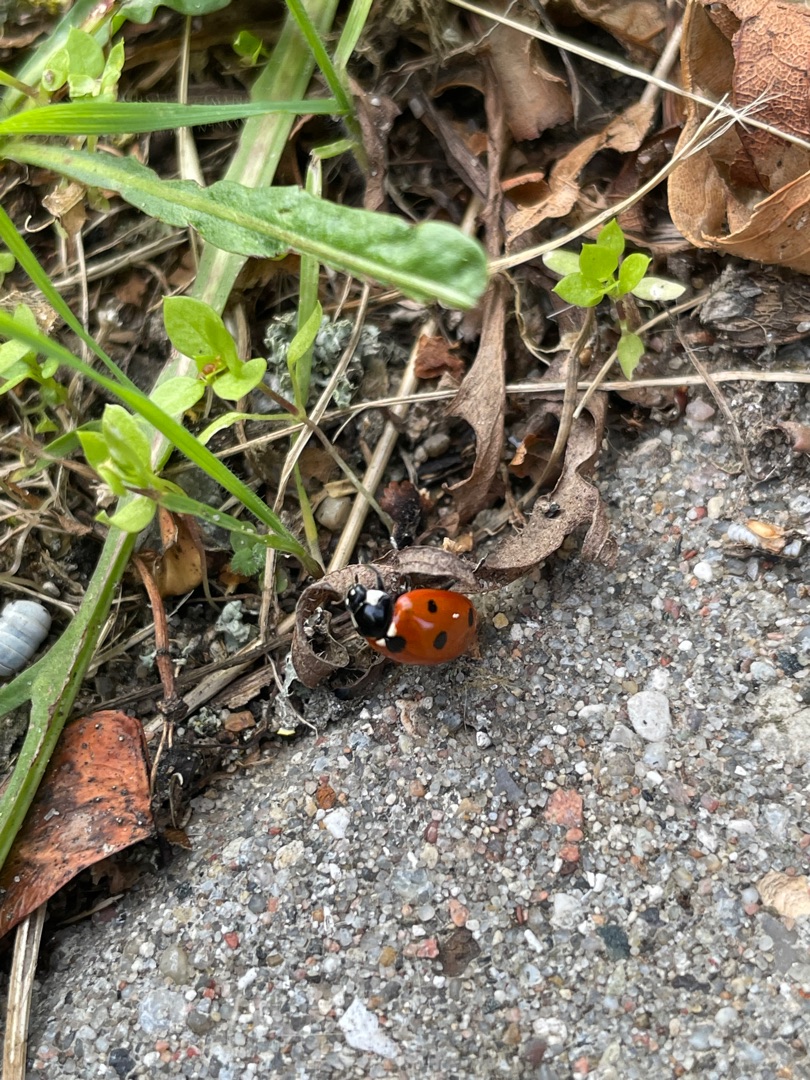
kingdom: Animalia
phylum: Arthropoda
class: Insecta
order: Coleoptera
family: Coccinellidae
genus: Coccinella
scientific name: Coccinella septempunctata
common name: Syvplettet mariehøne
